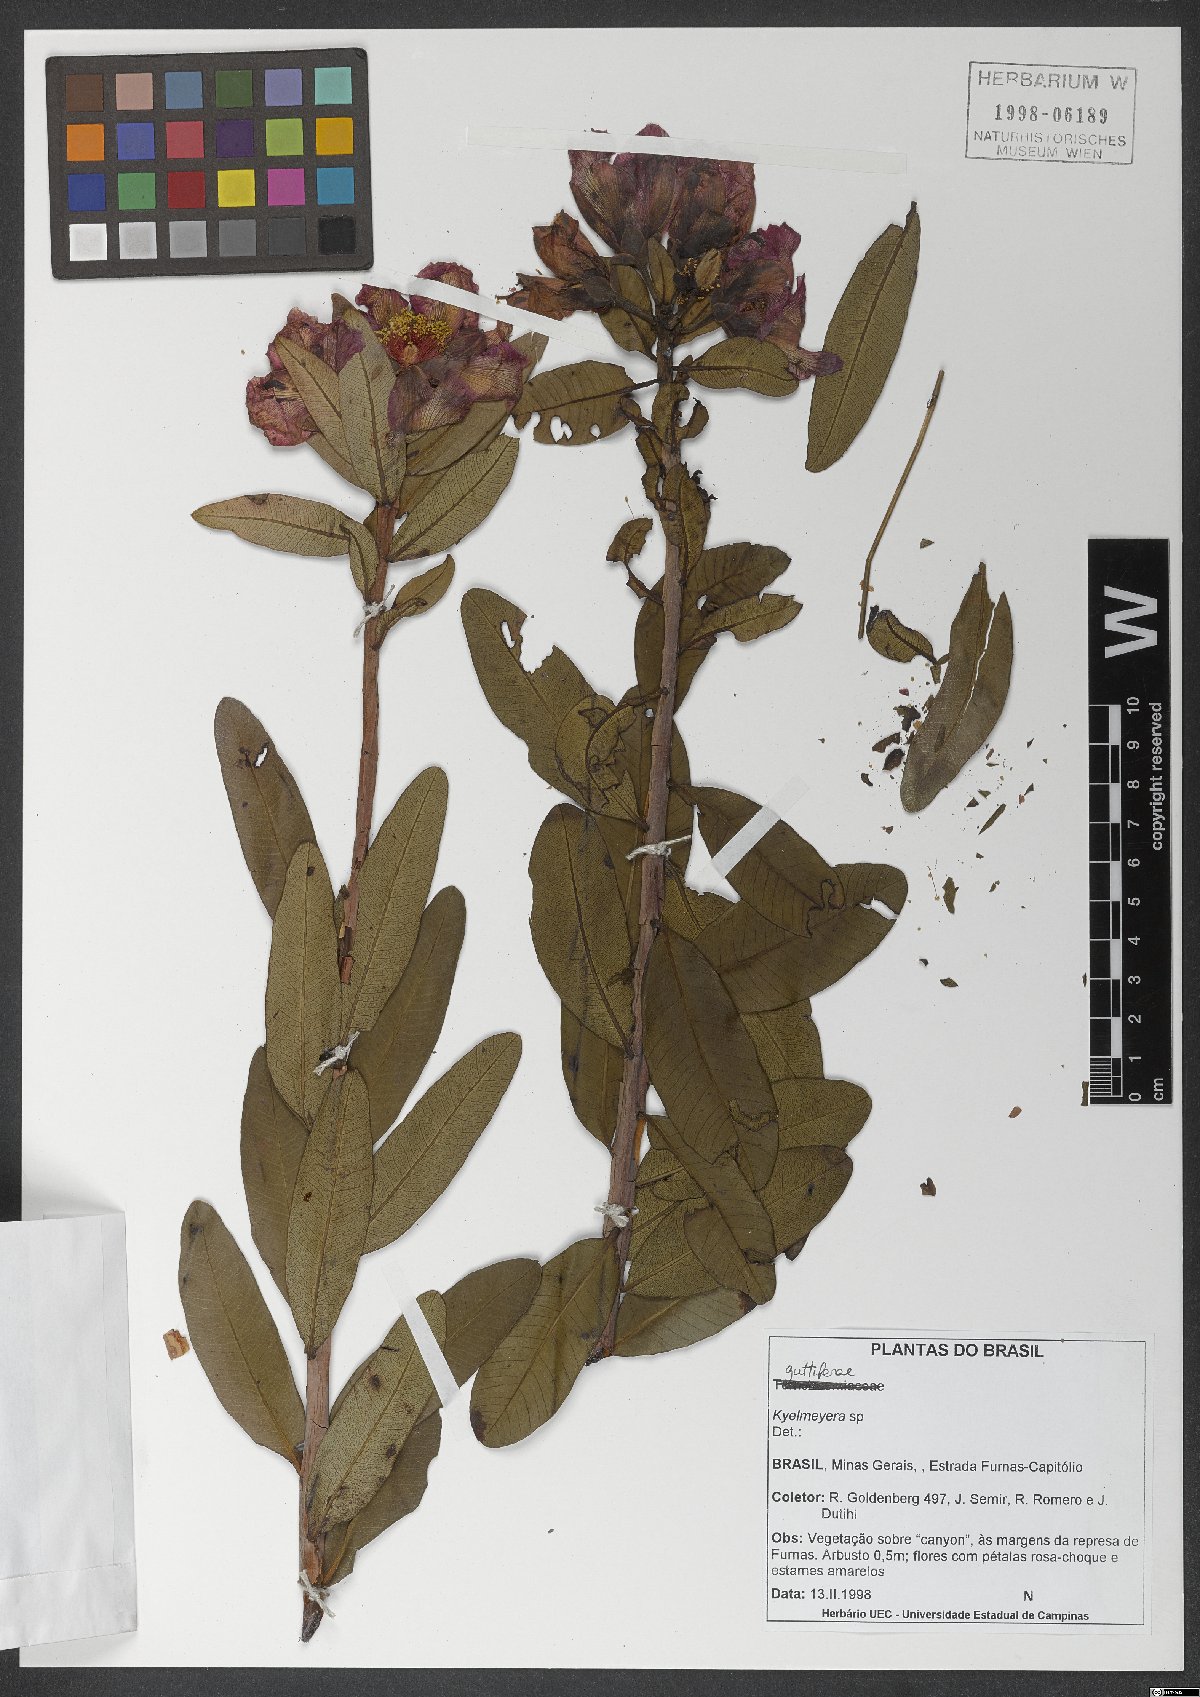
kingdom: Plantae
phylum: Tracheophyta
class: Magnoliopsida
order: Malpighiales
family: Calophyllaceae
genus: Kielmeyera
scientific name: Kielmeyera regalis
